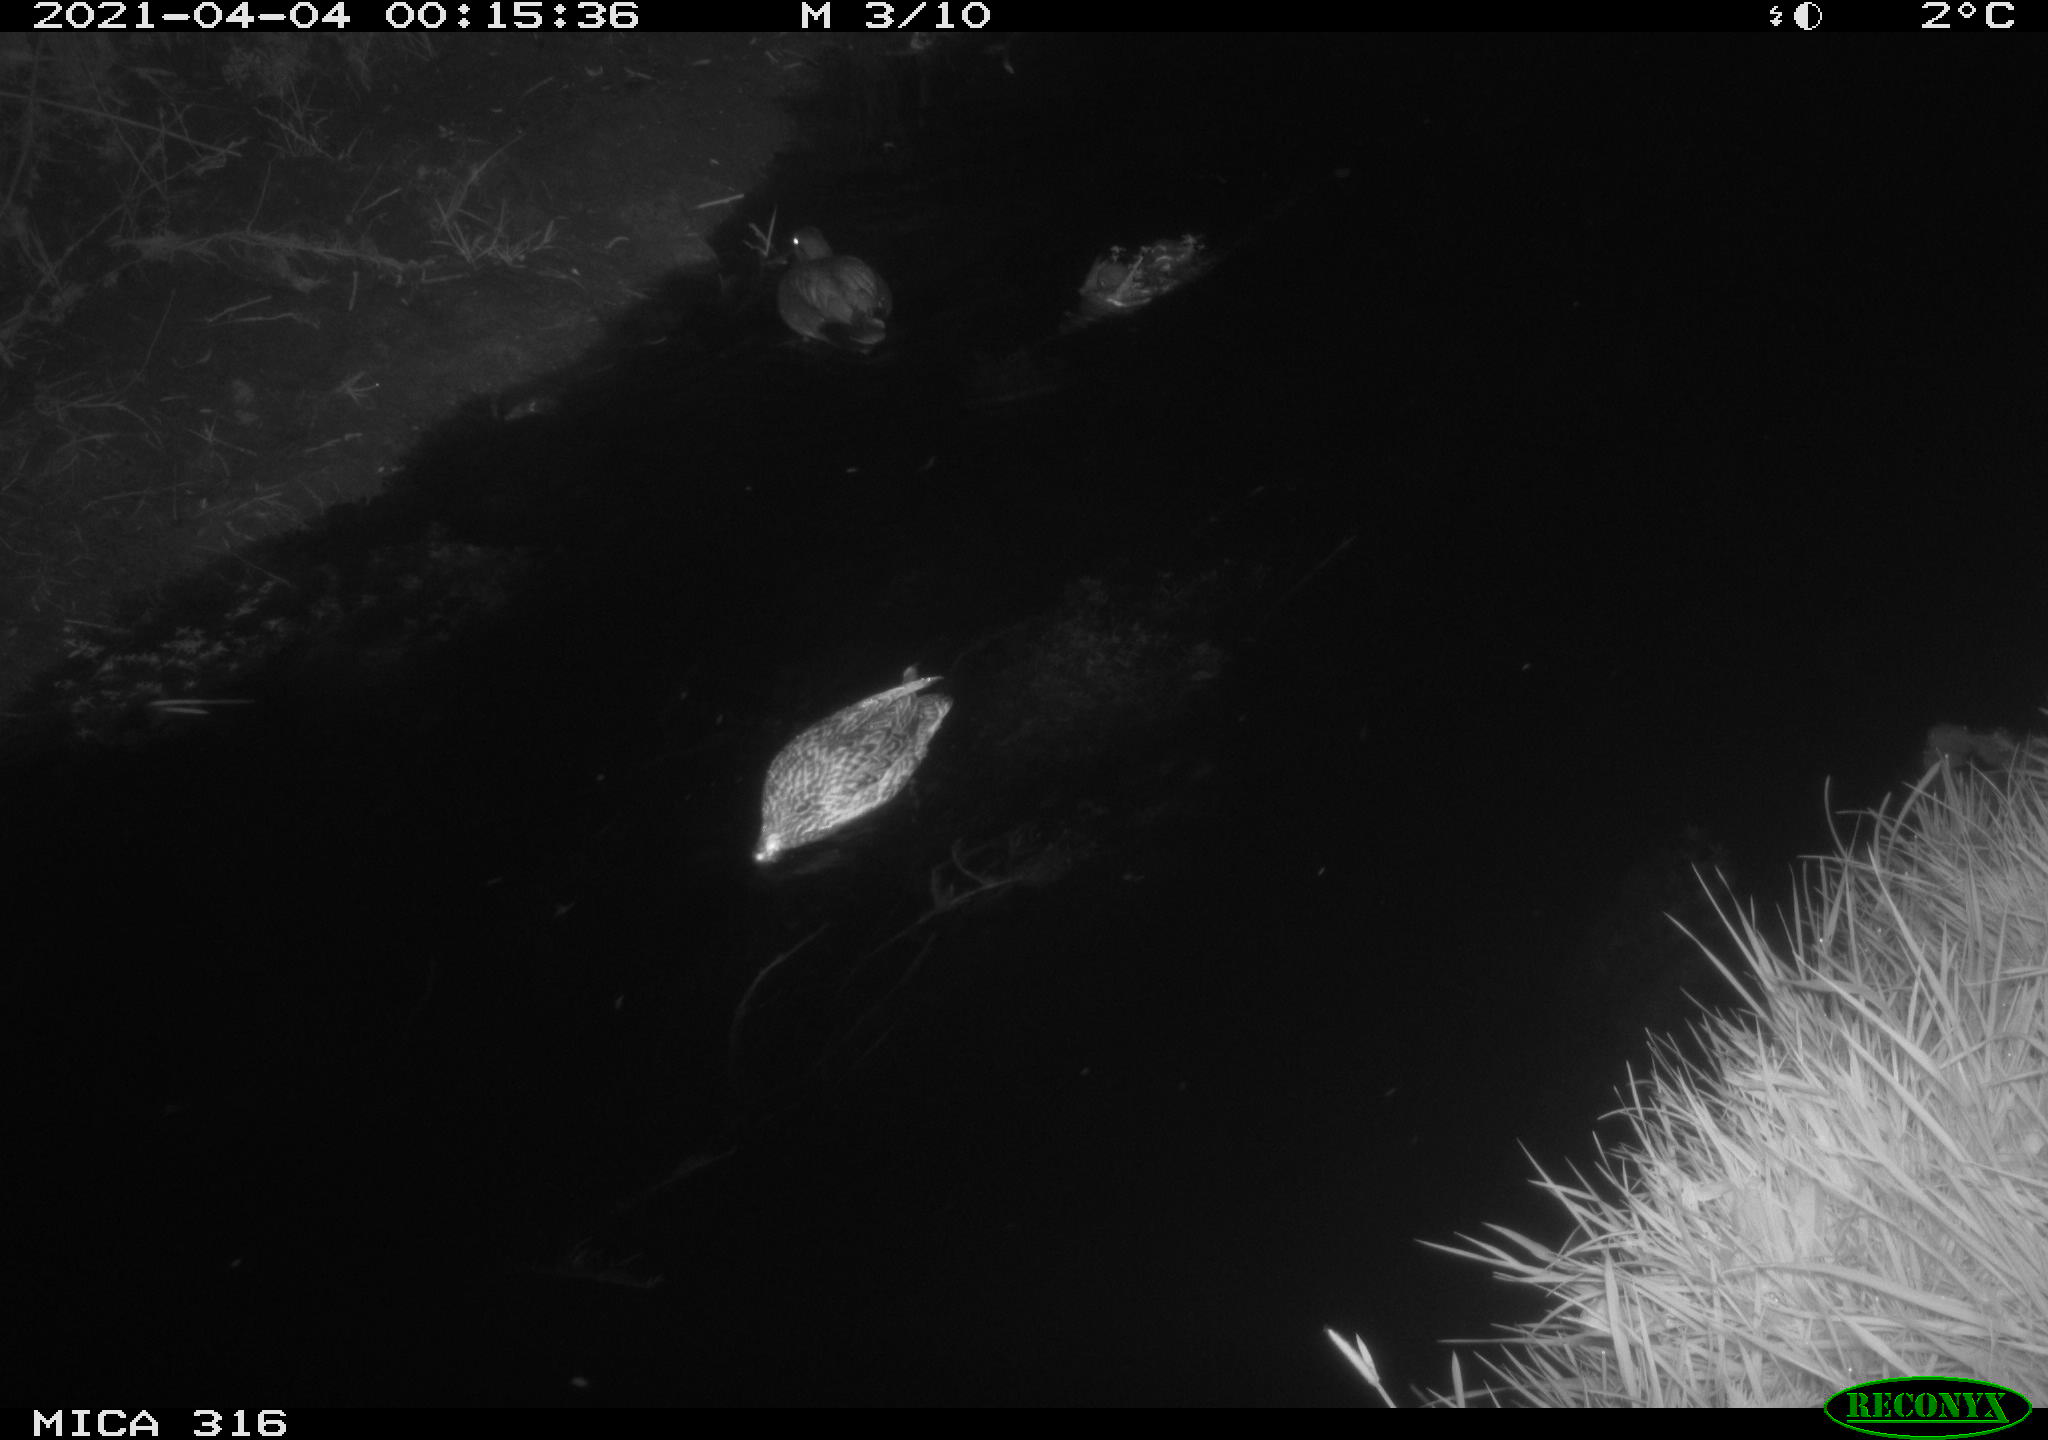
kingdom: Animalia
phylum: Chordata
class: Aves
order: Gruiformes
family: Rallidae
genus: Fulica
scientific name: Fulica atra
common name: Eurasian coot
